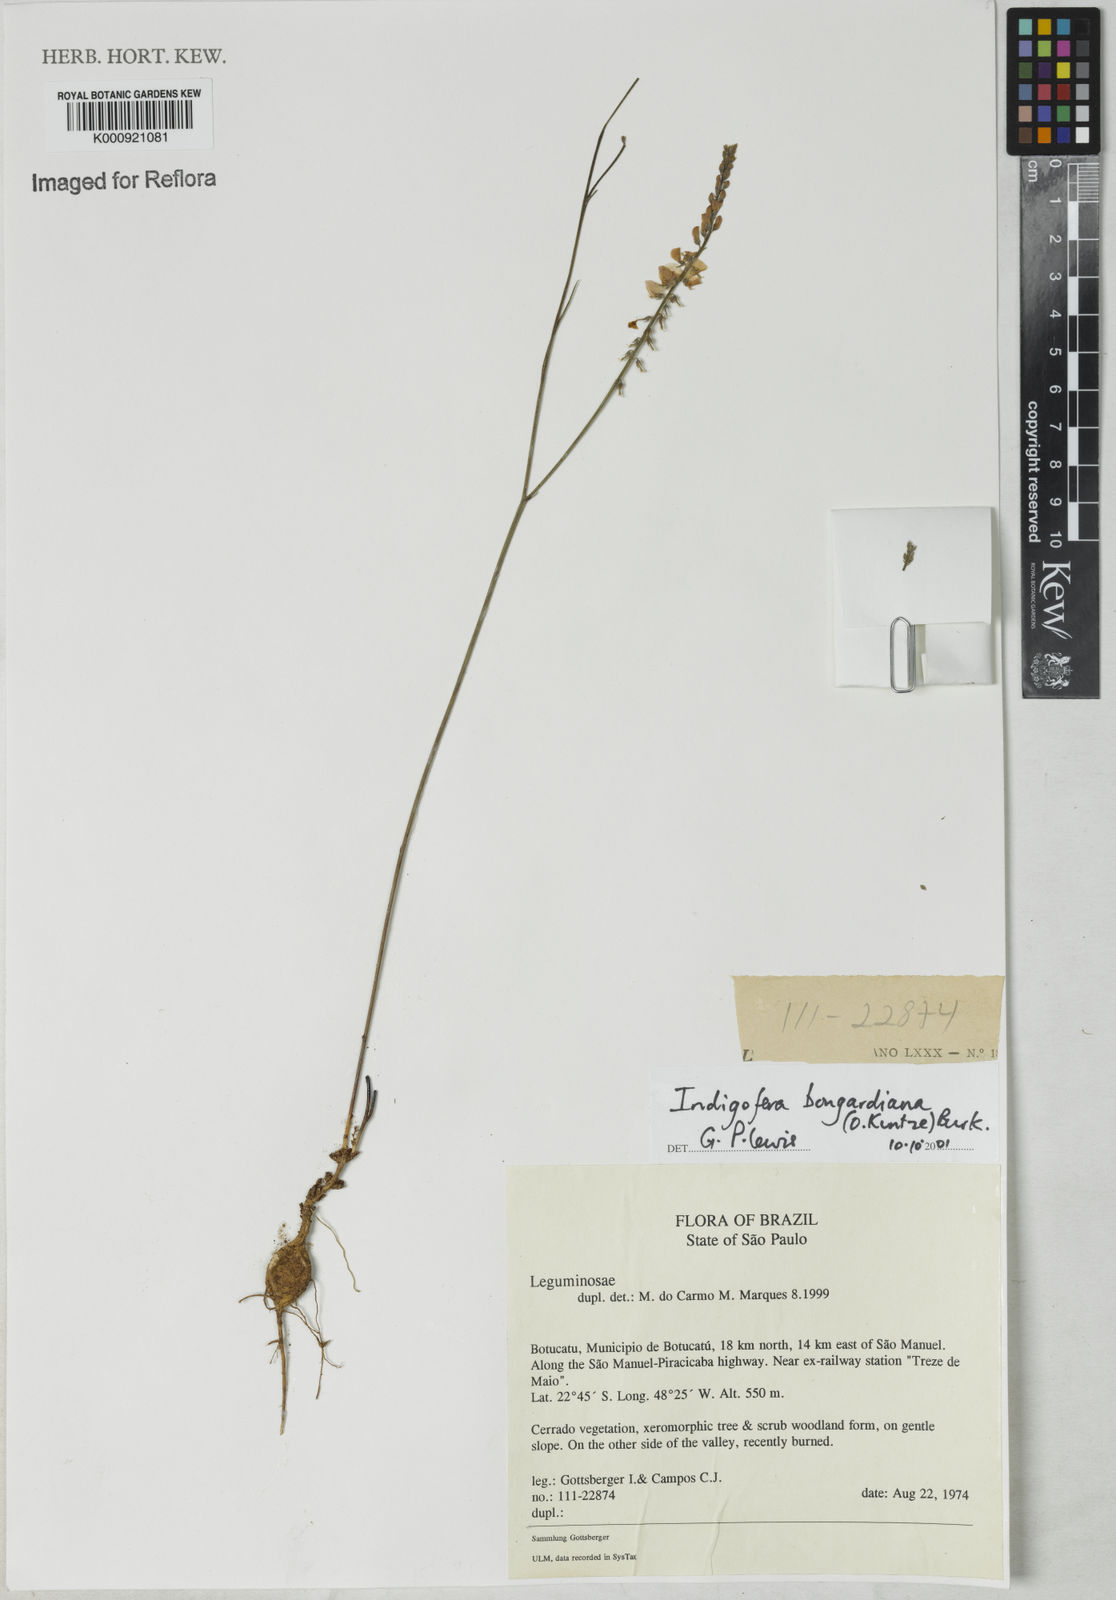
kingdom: Plantae
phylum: Tracheophyta
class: Magnoliopsida
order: Fabales
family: Fabaceae
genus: Indigofera
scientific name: Indigofera bongardiana
